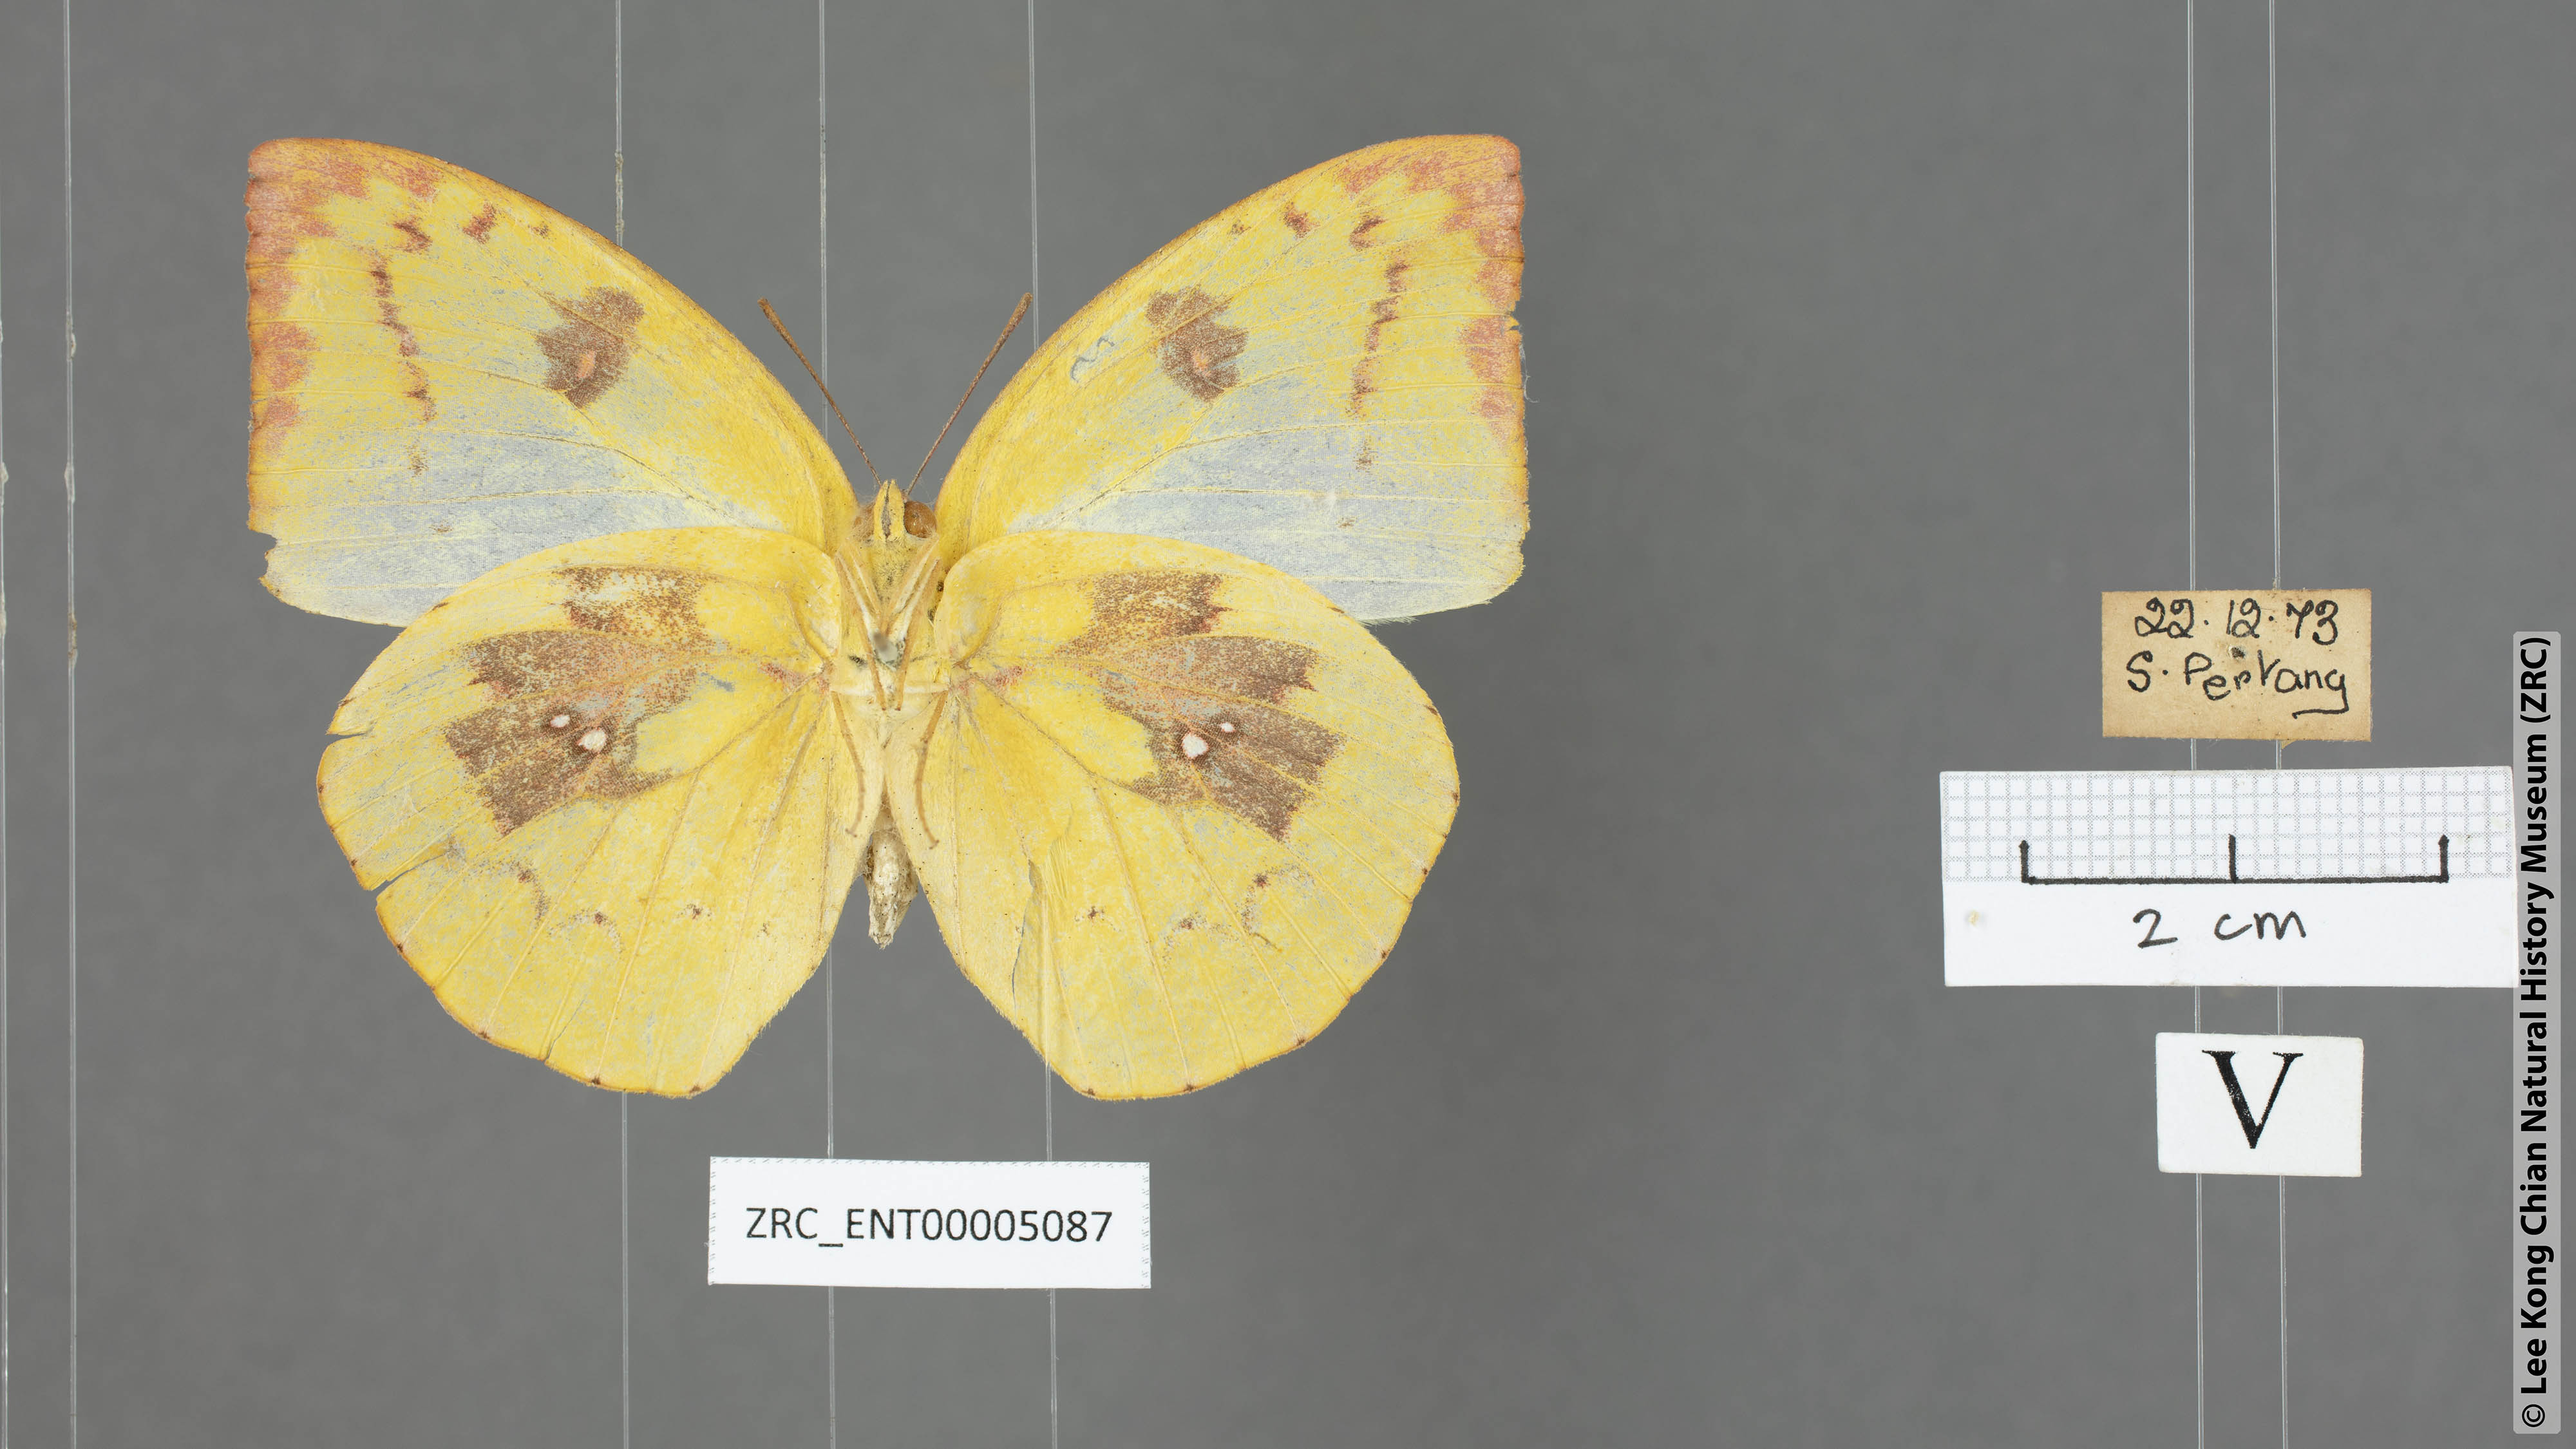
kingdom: Animalia
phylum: Arthropoda
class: Insecta
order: Lepidoptera
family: Pieridae
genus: Catopsilia
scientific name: Catopsilia pomona
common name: Common emigrant
